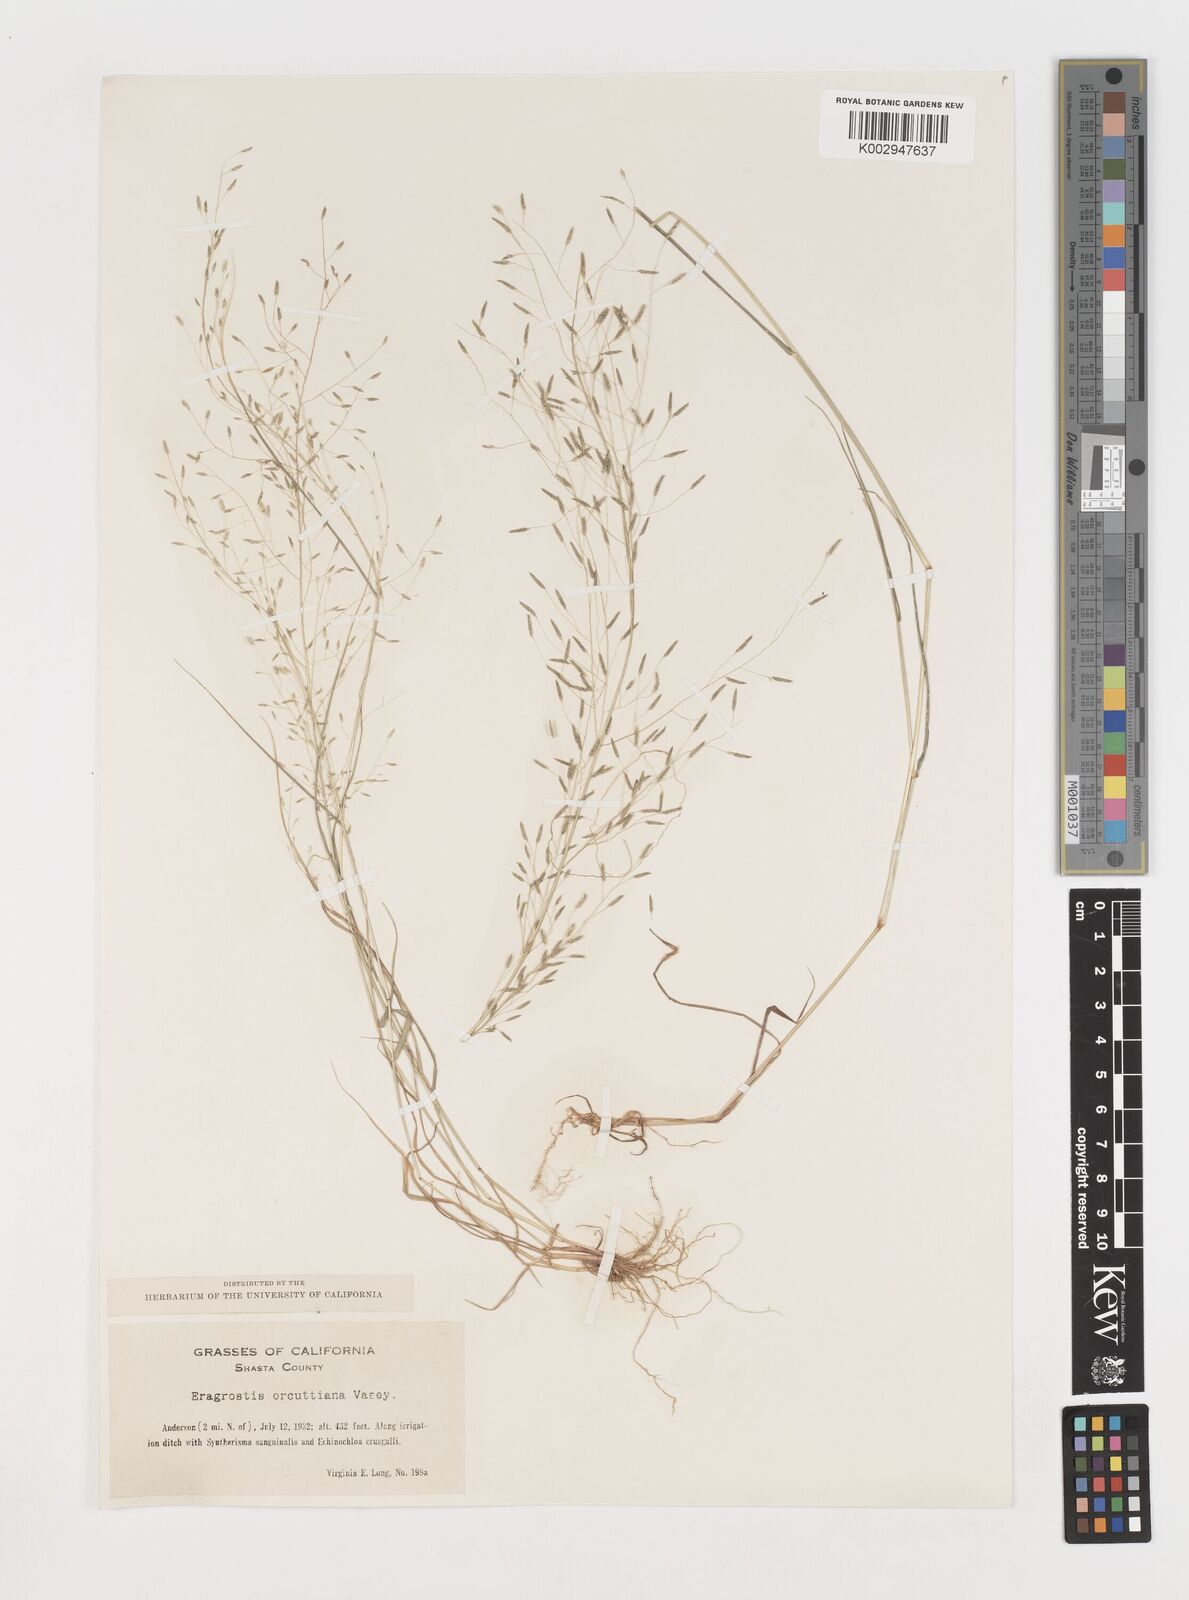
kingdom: Plantae
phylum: Tracheophyta
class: Liliopsida
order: Poales
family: Poaceae
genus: Eragrostis
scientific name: Eragrostis mexicana
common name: Mexican love grass
